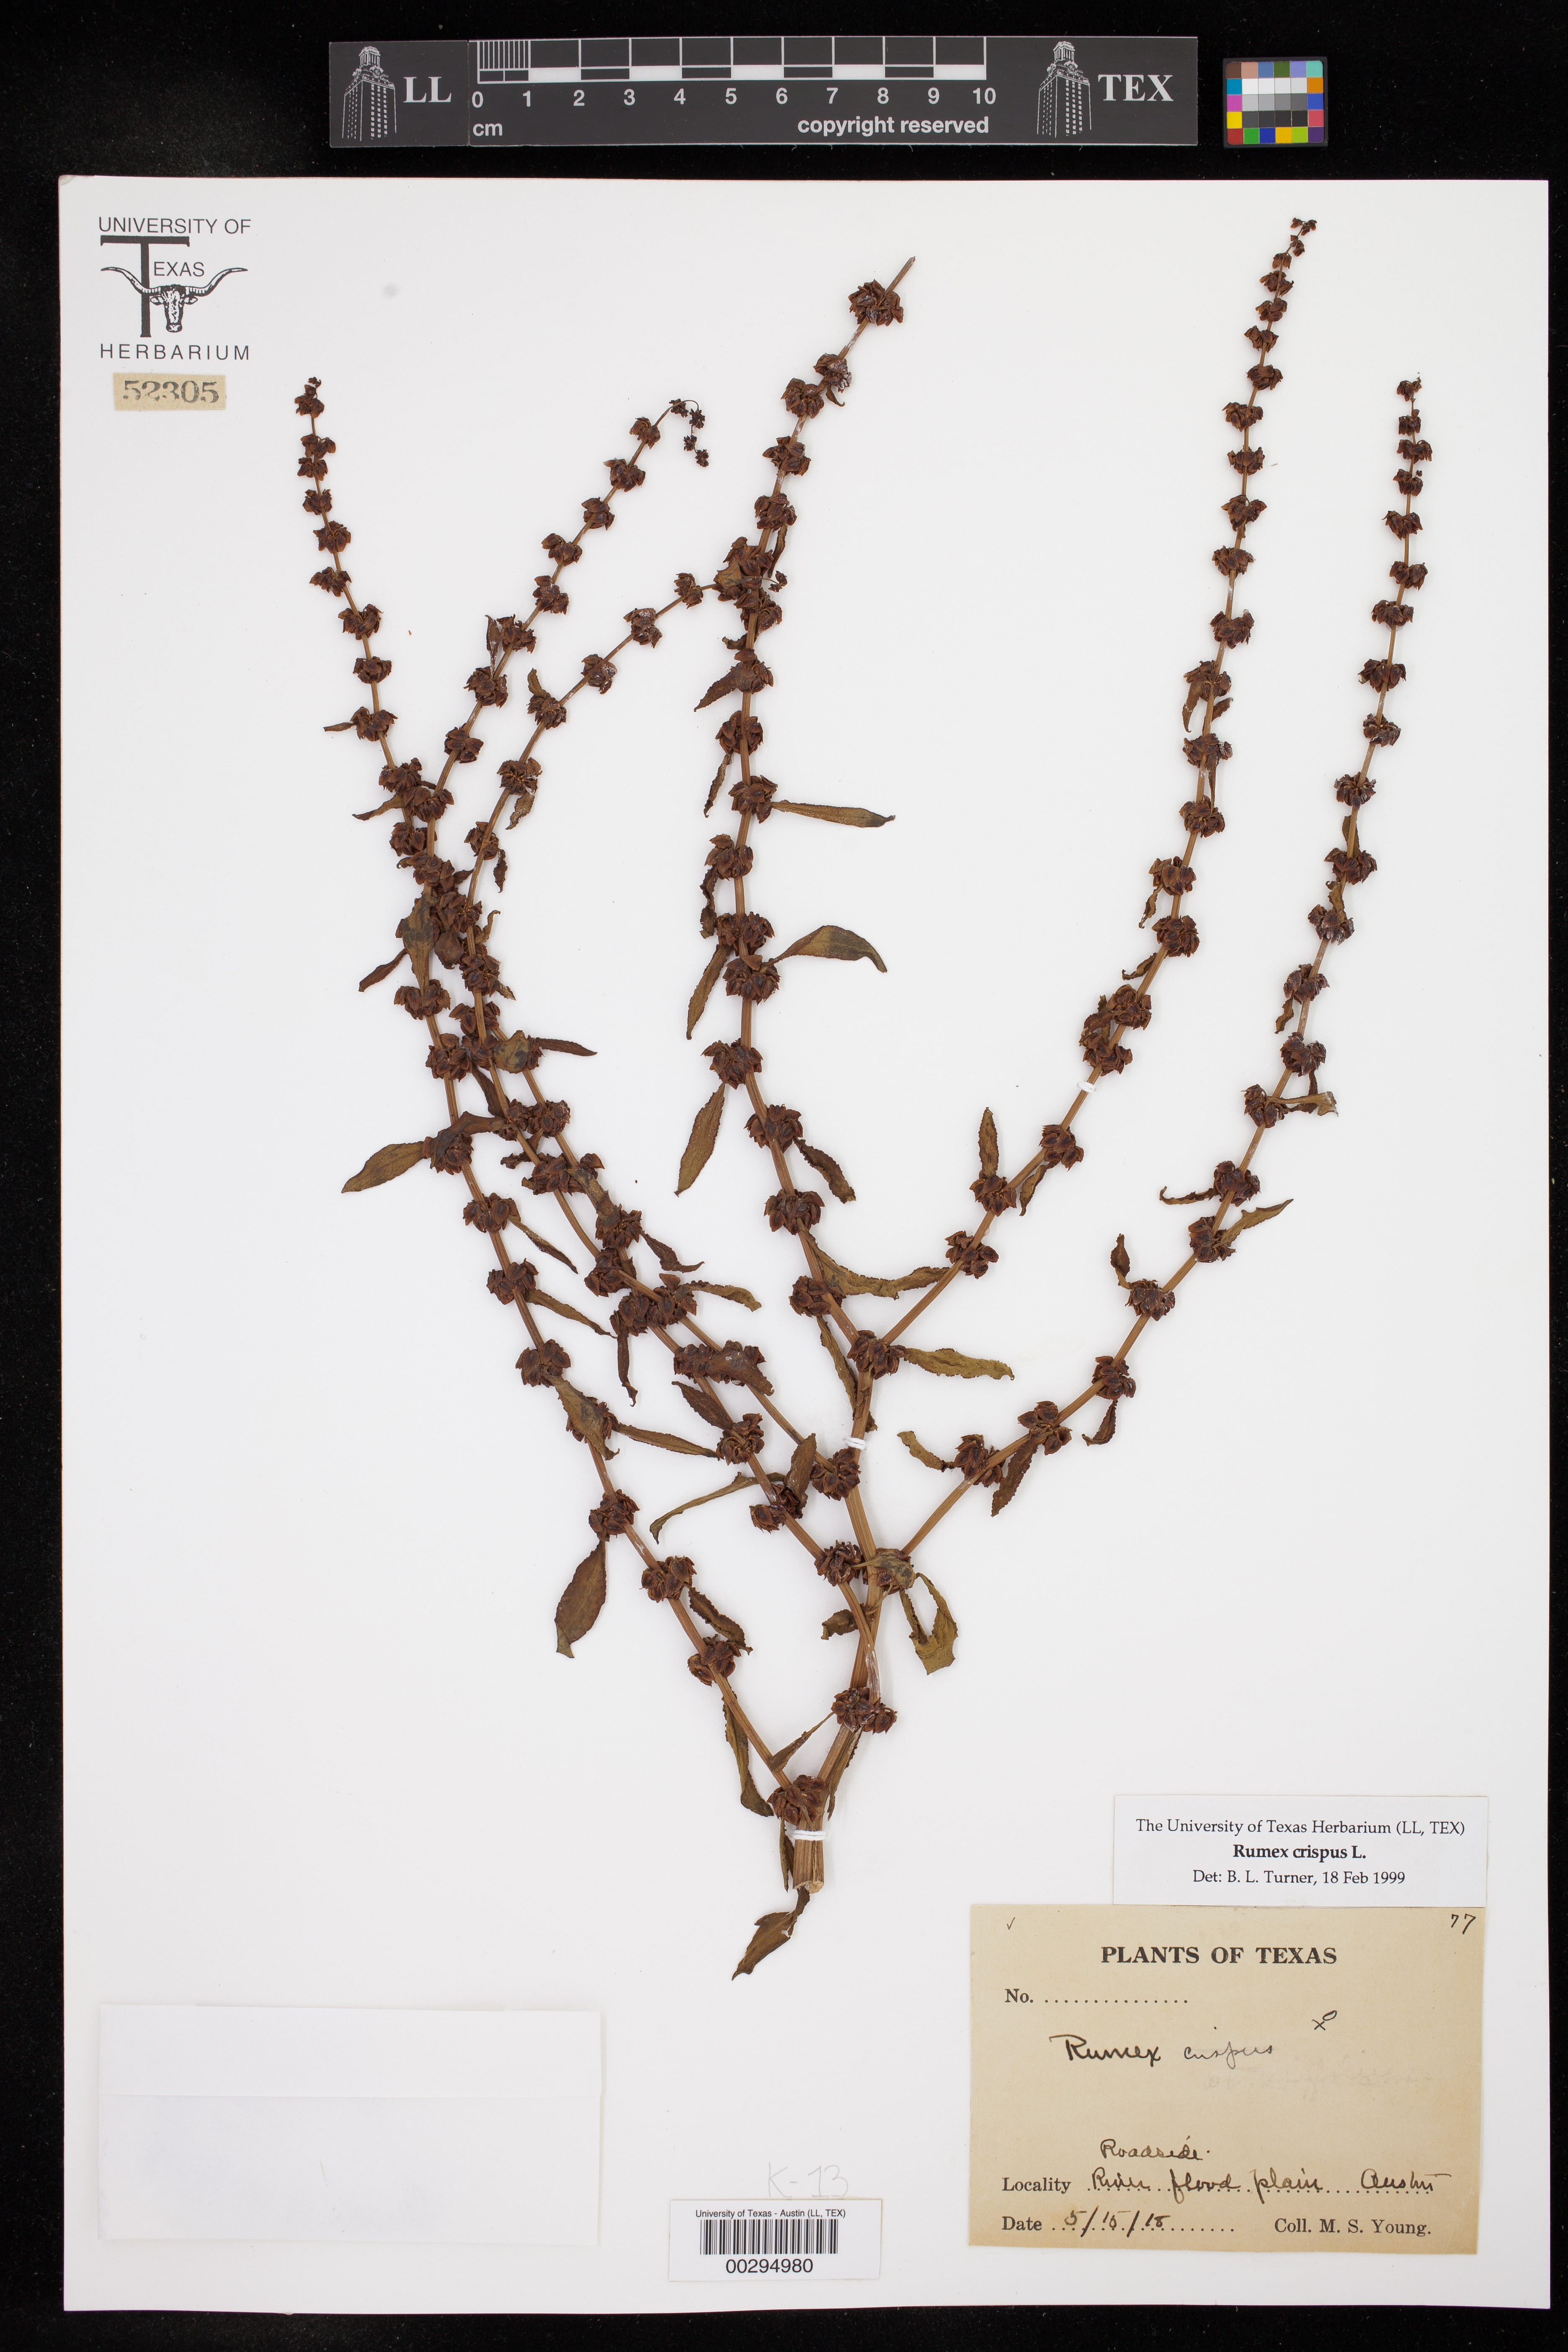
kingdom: Plantae
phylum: Tracheophyta
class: Magnoliopsida
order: Caryophyllales
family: Polygonaceae
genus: Rumex
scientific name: Rumex crispus
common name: Curled dock
